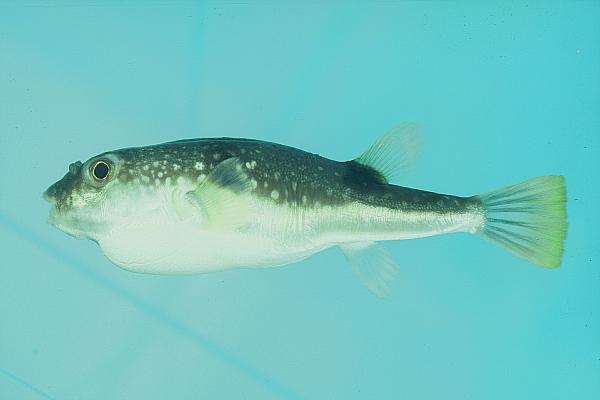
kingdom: Animalia
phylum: Chordata
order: Tetraodontiformes
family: Tetraodontidae
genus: Takifugu
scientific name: Takifugu niphobles
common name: Grass puffer
